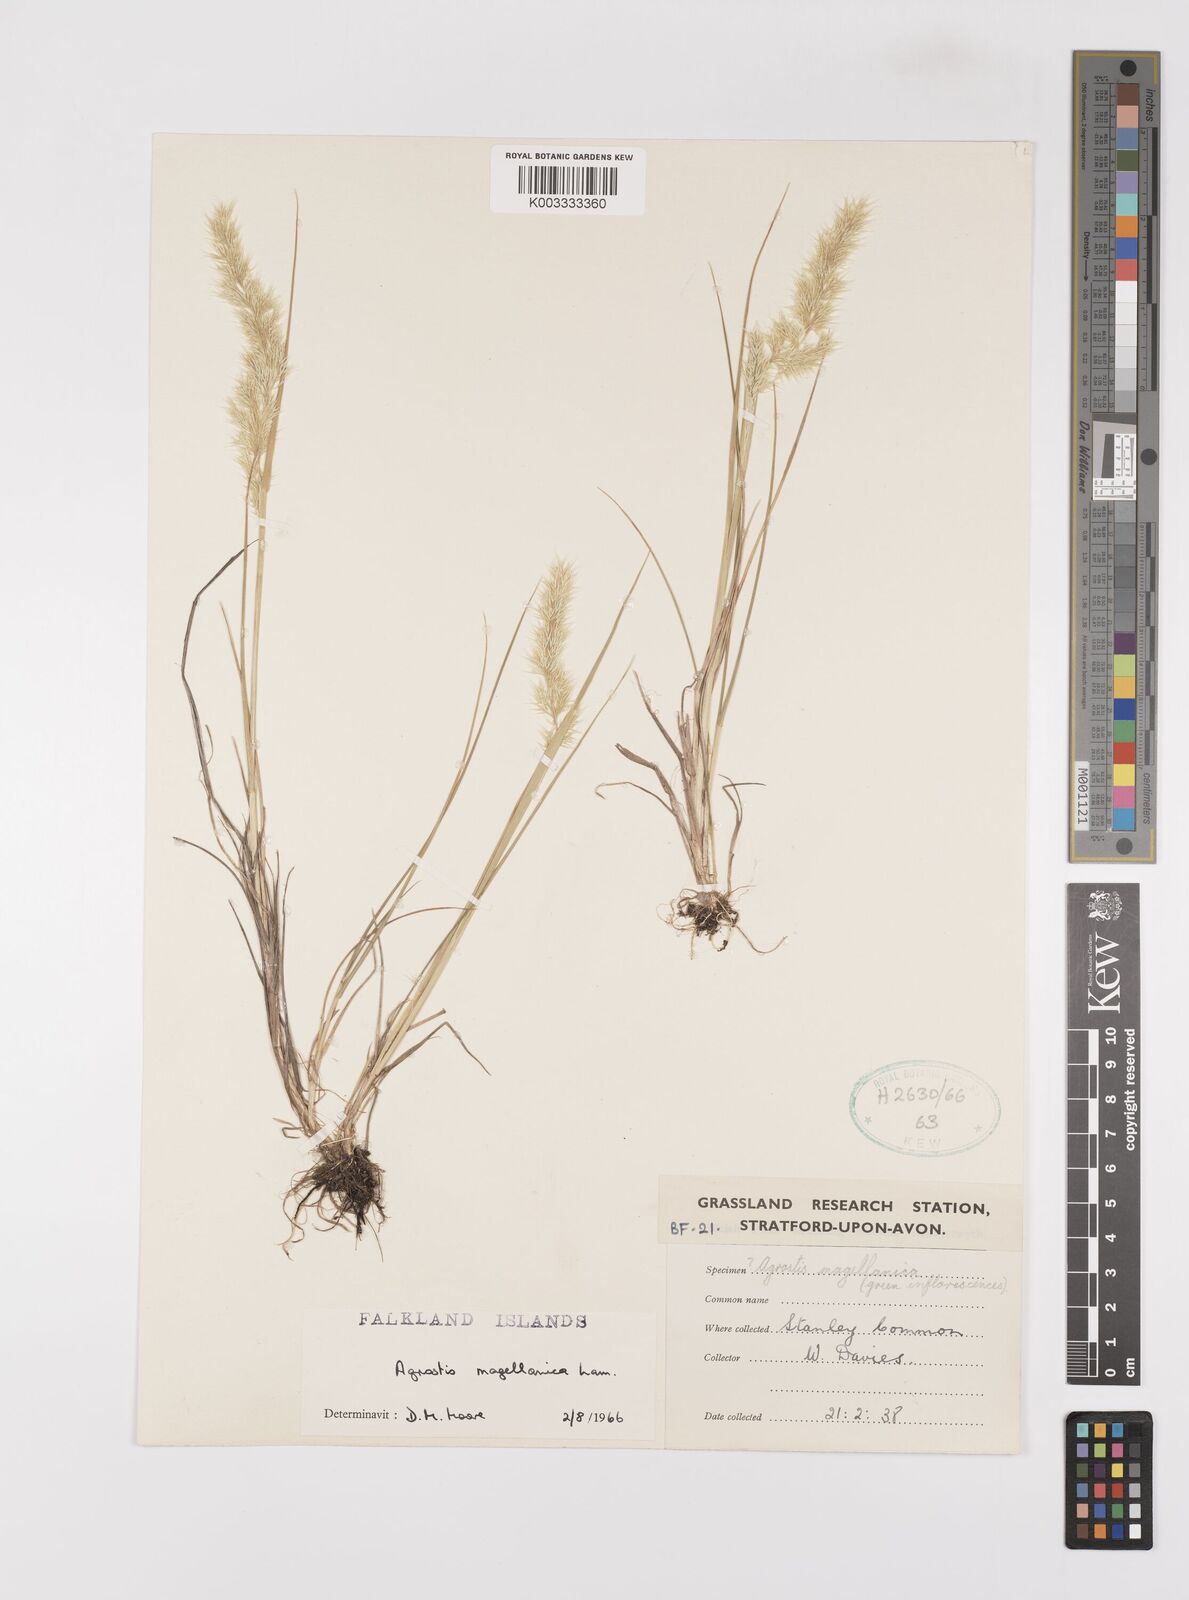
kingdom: Plantae
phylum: Tracheophyta
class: Liliopsida
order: Poales
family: Poaceae
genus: Polypogon
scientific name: Polypogon magellanicus
